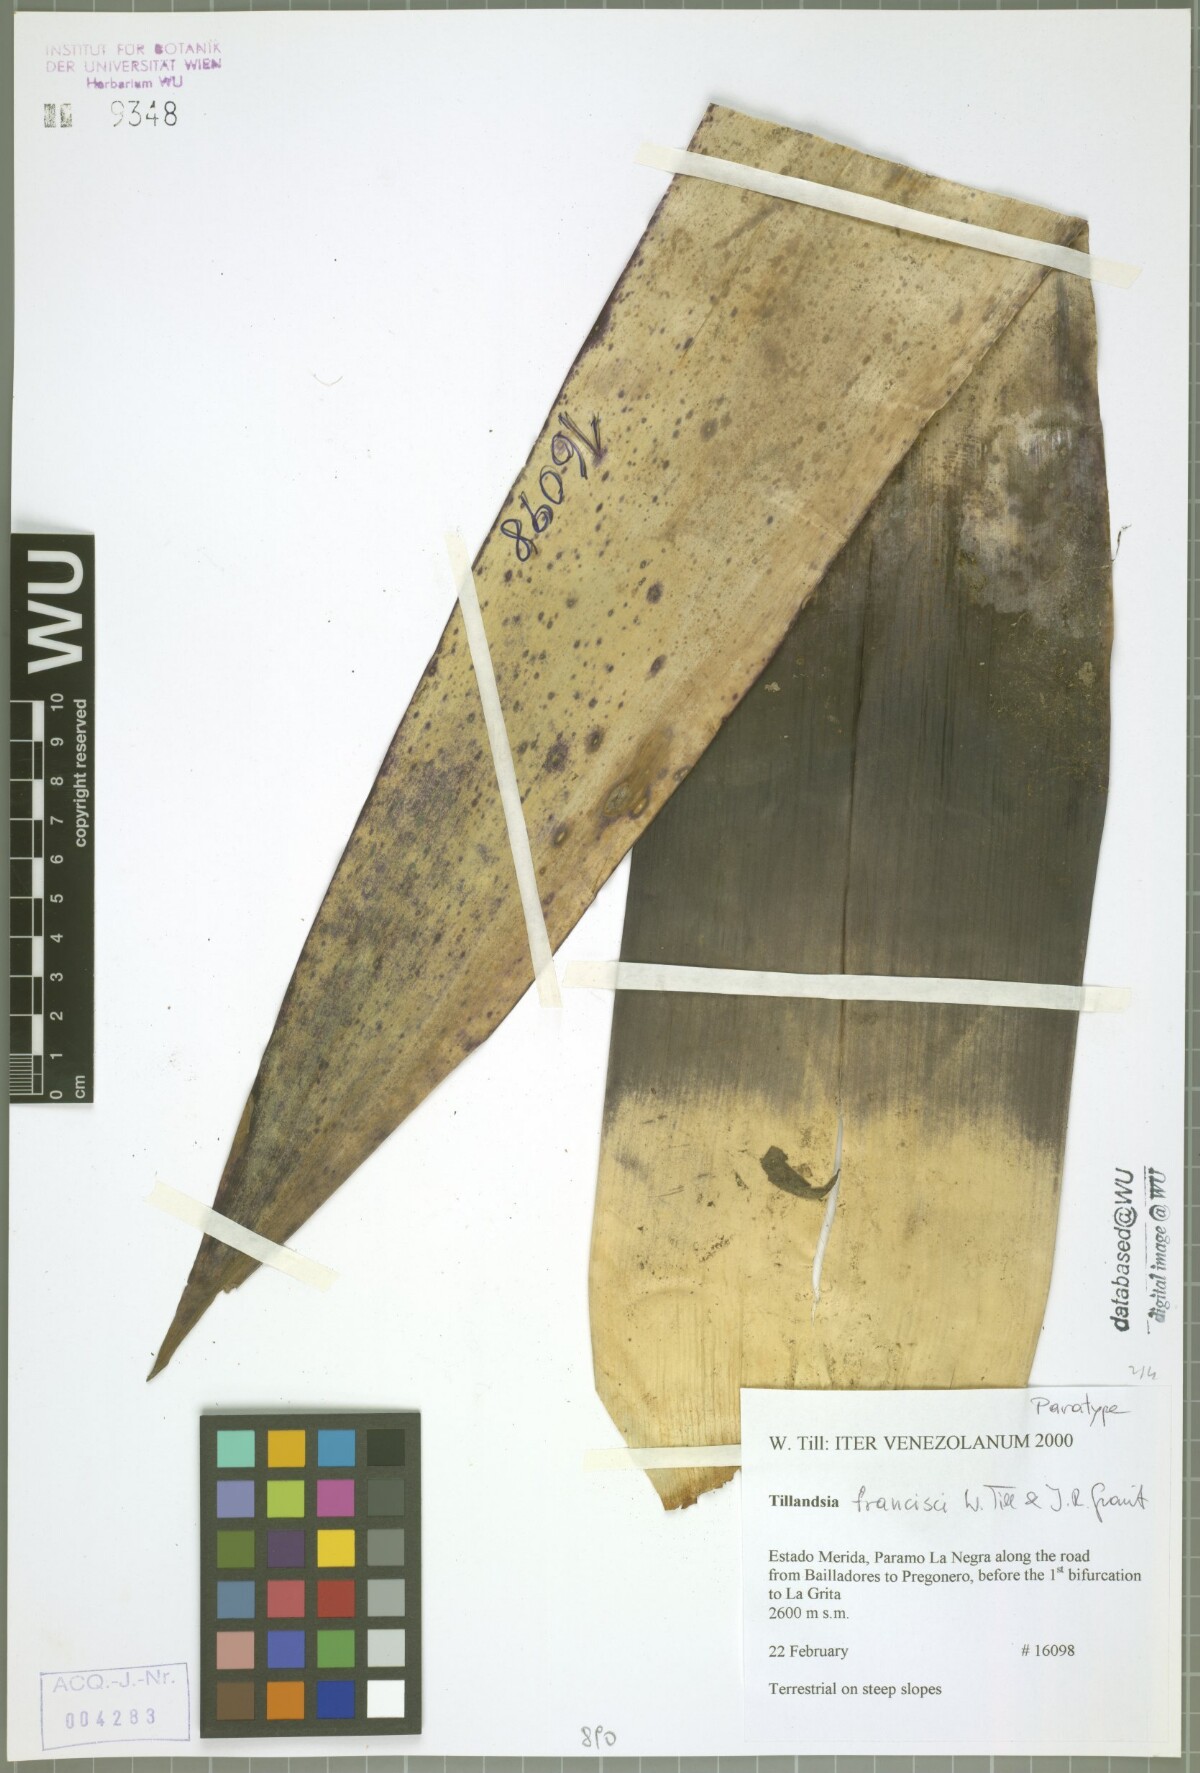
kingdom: Plantae
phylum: Tracheophyta
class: Liliopsida
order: Poales
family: Bromeliaceae
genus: Tillandsia
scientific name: Tillandsia francisci
